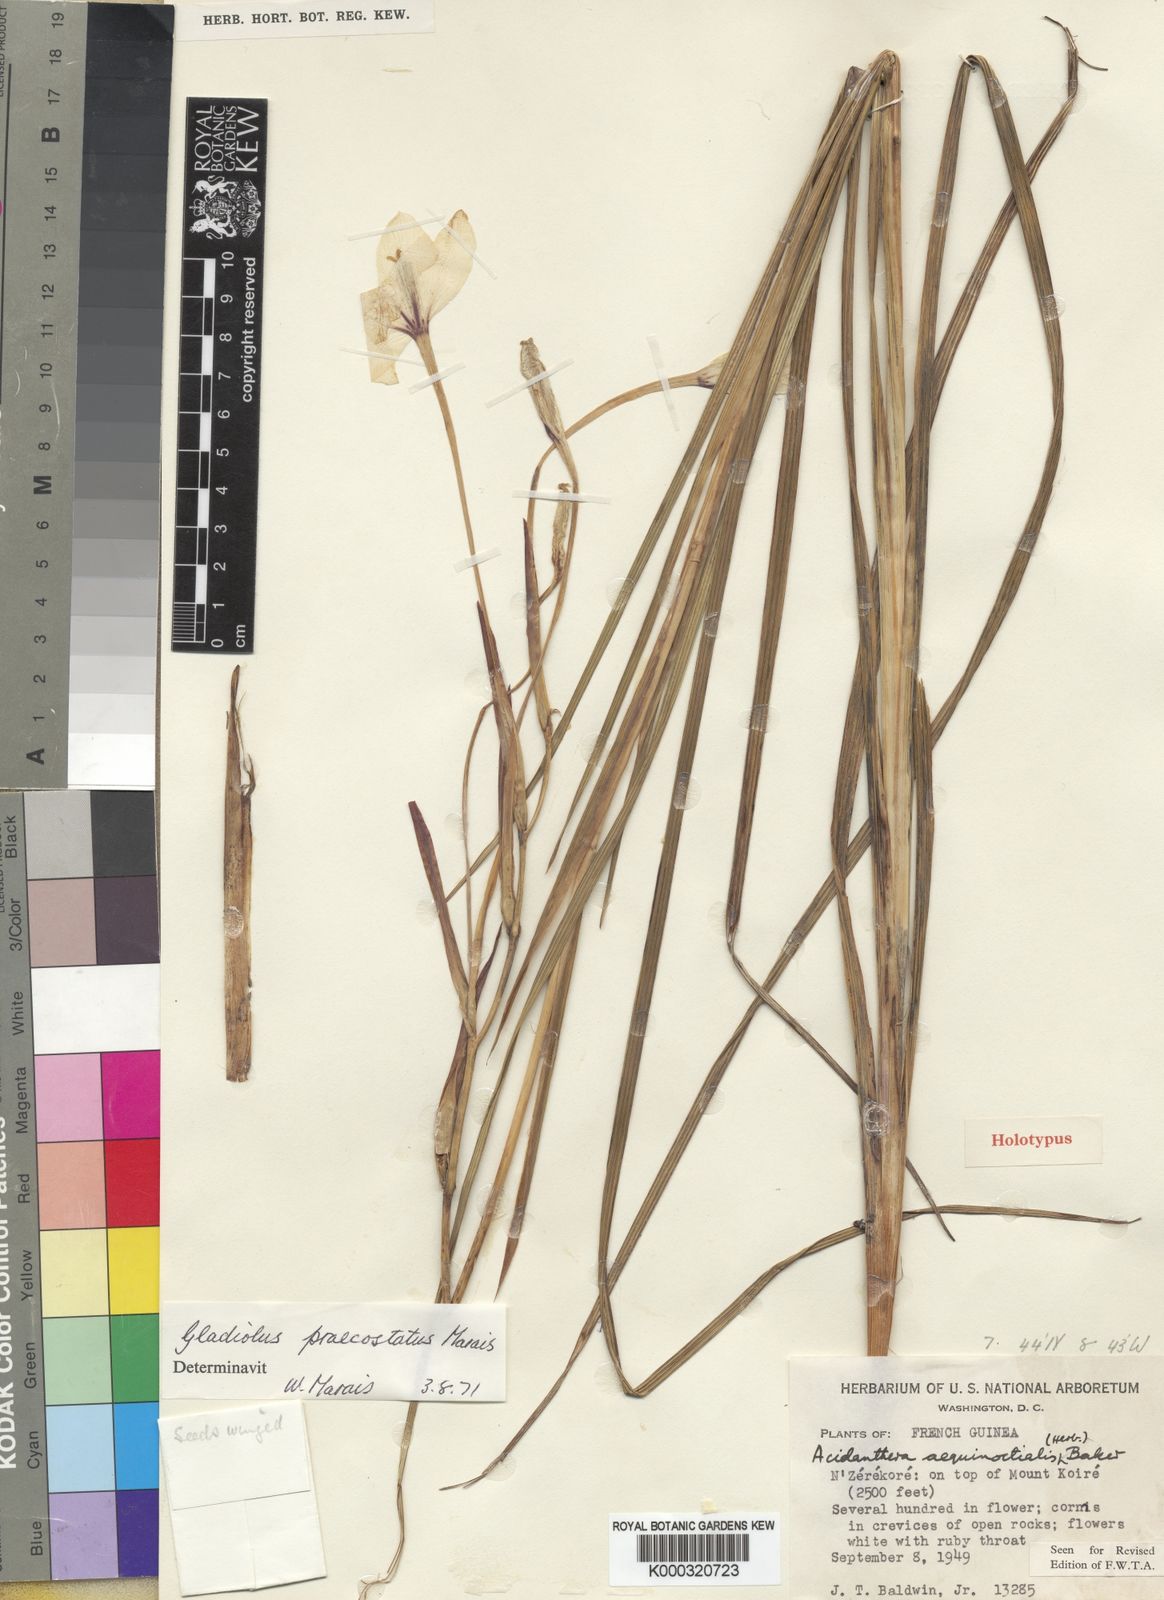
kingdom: Plantae
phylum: Tracheophyta
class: Liliopsida
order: Asparagales
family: Iridaceae
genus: Gladiolus
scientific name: Gladiolus praecostatus
